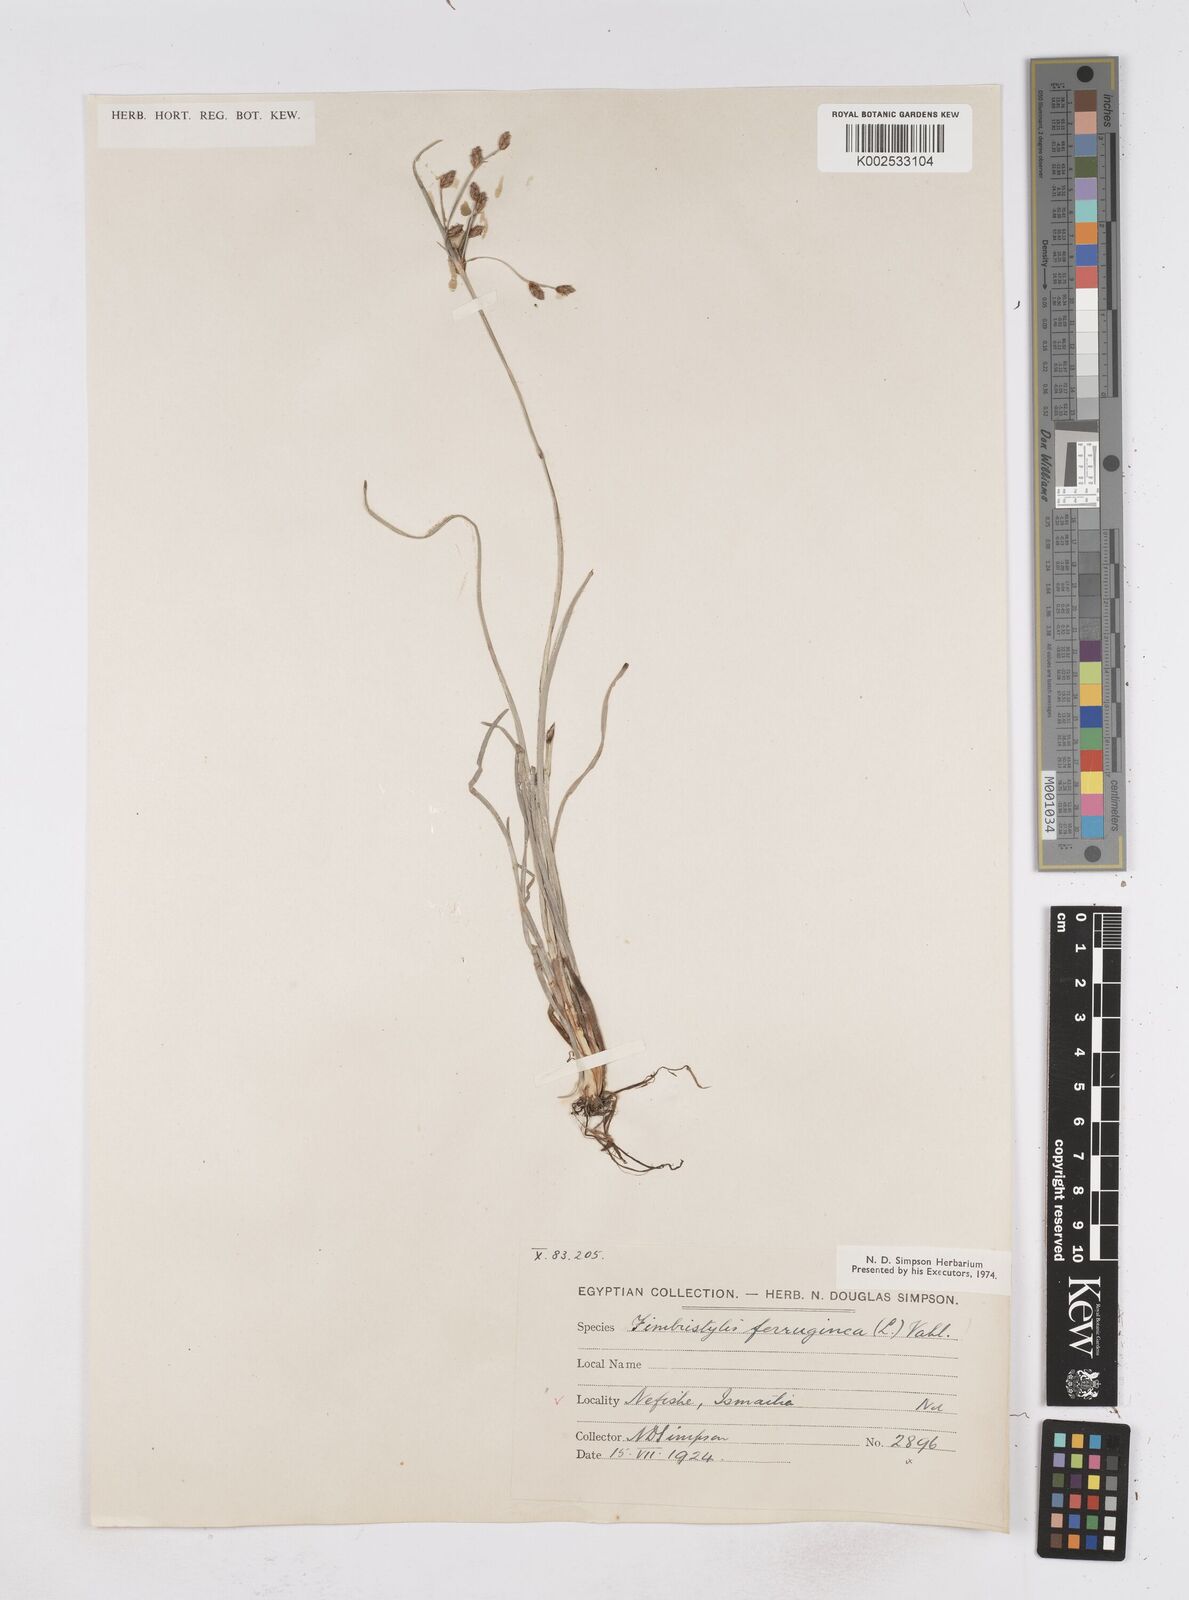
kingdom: Plantae
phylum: Tracheophyta
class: Liliopsida
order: Poales
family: Cyperaceae
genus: Fimbristylis
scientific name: Fimbristylis ferruginea
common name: West indian fimbry
